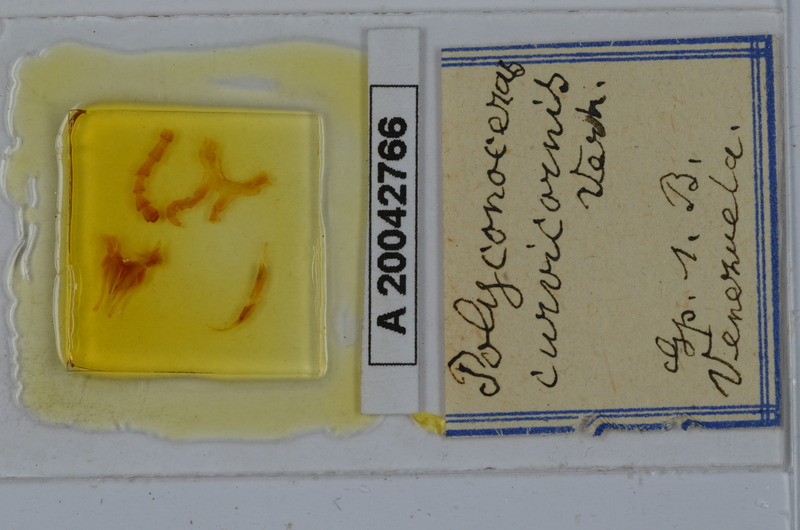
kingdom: Animalia
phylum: Arthropoda
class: Diplopoda
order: Spirobolida
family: Rhinocricidae
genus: Salpidobolus
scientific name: Salpidobolus curvicornis
